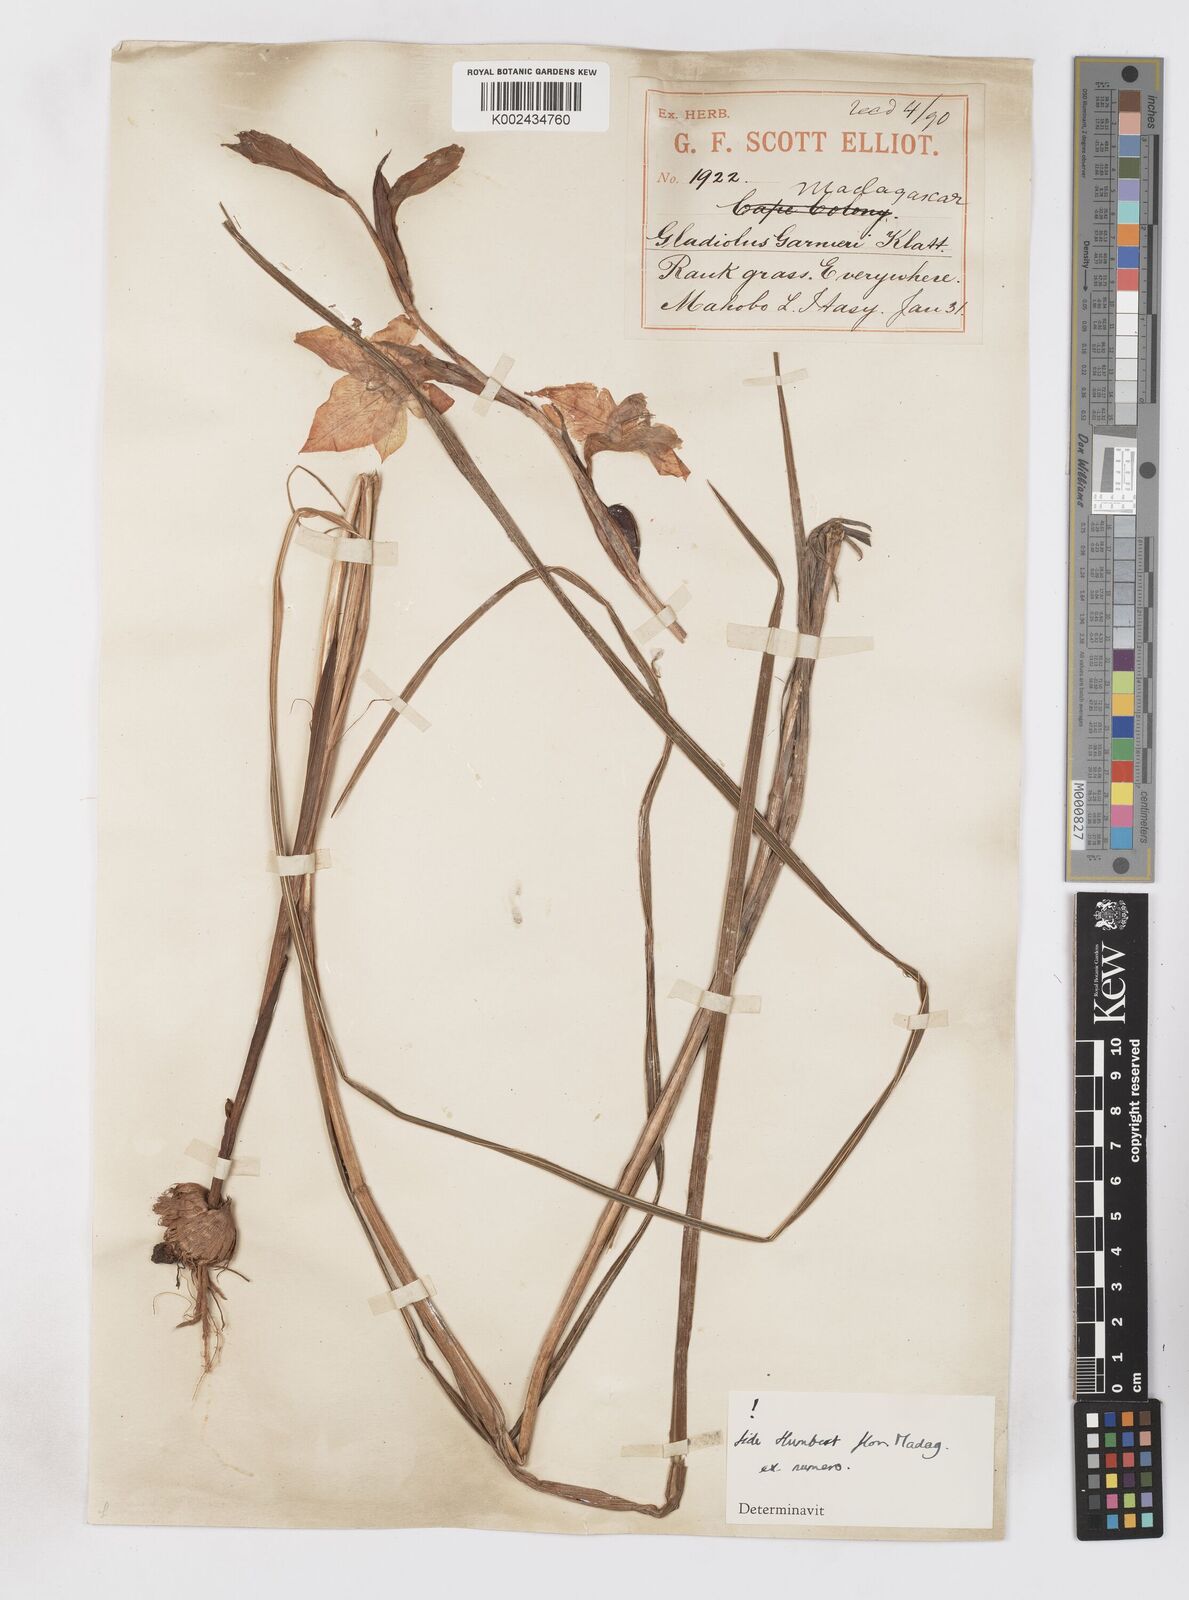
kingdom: Plantae
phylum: Tracheophyta
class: Liliopsida
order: Asparagales
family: Iridaceae
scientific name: Iridaceae
